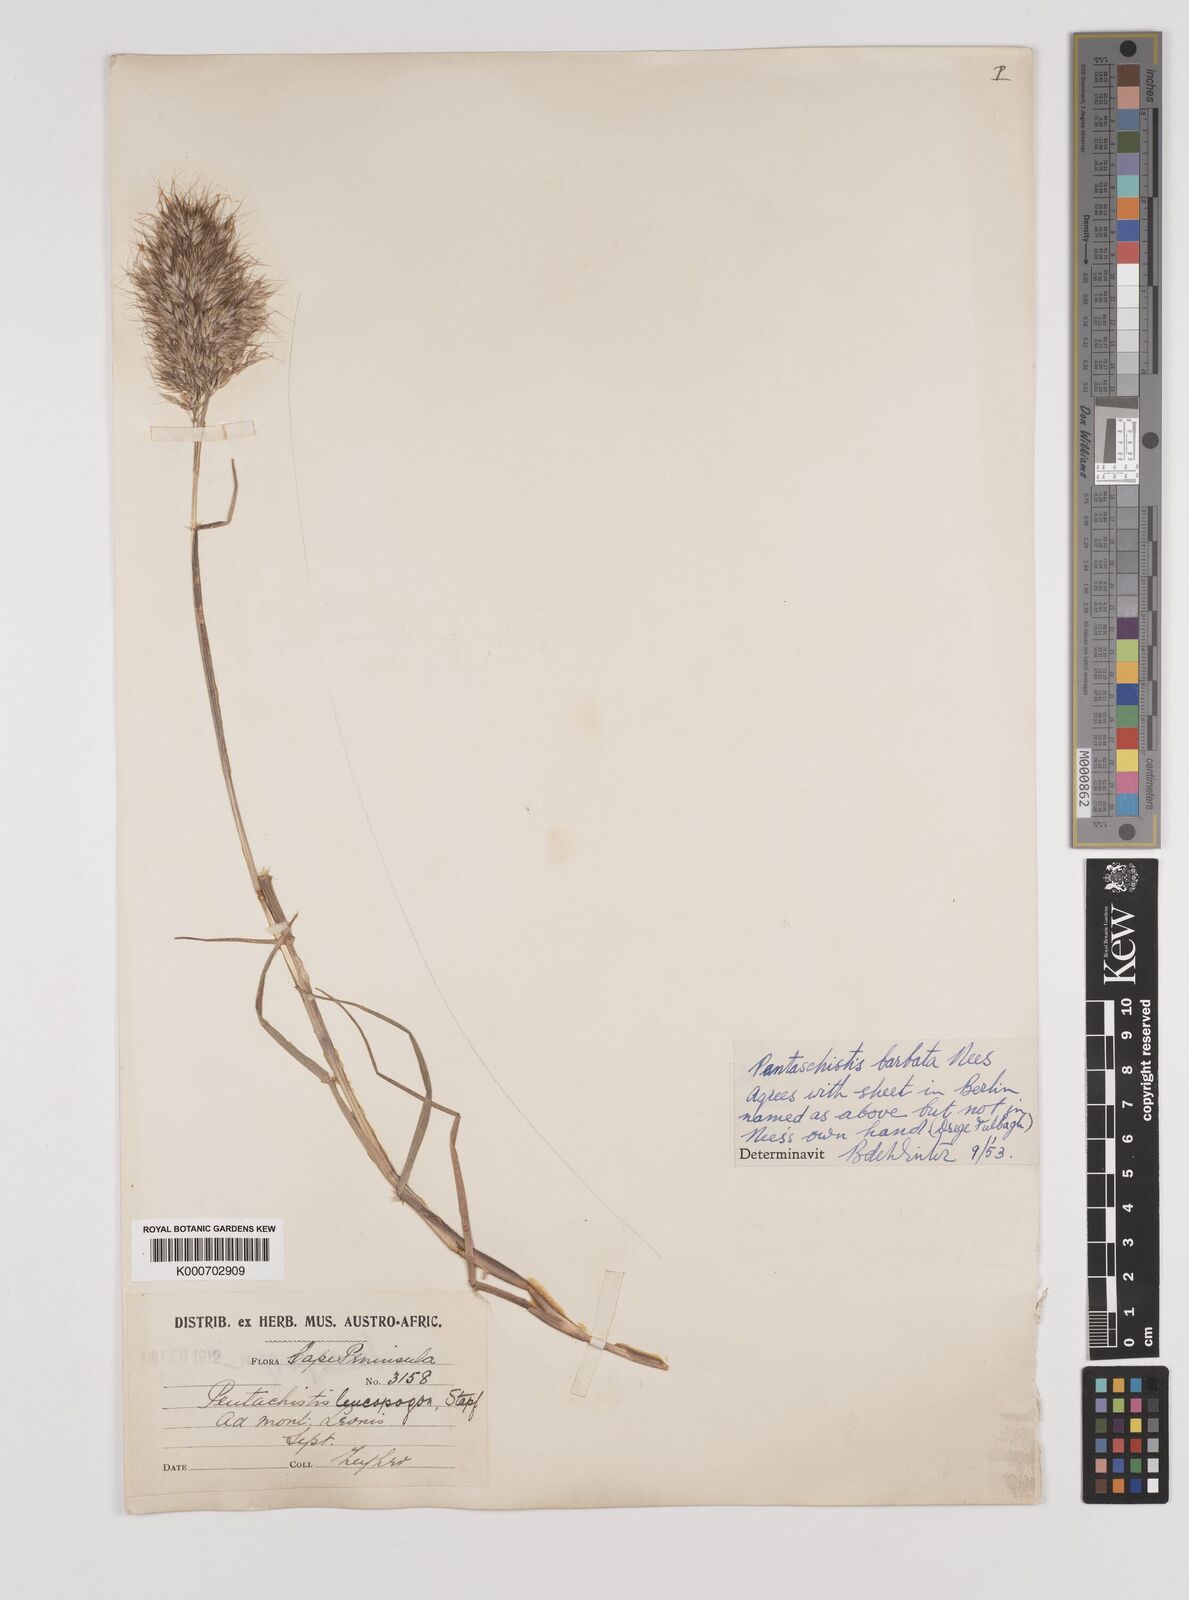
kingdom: Plantae
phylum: Tracheophyta
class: Liliopsida
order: Poales
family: Poaceae
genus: Pentameris
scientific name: Pentameris barbata
